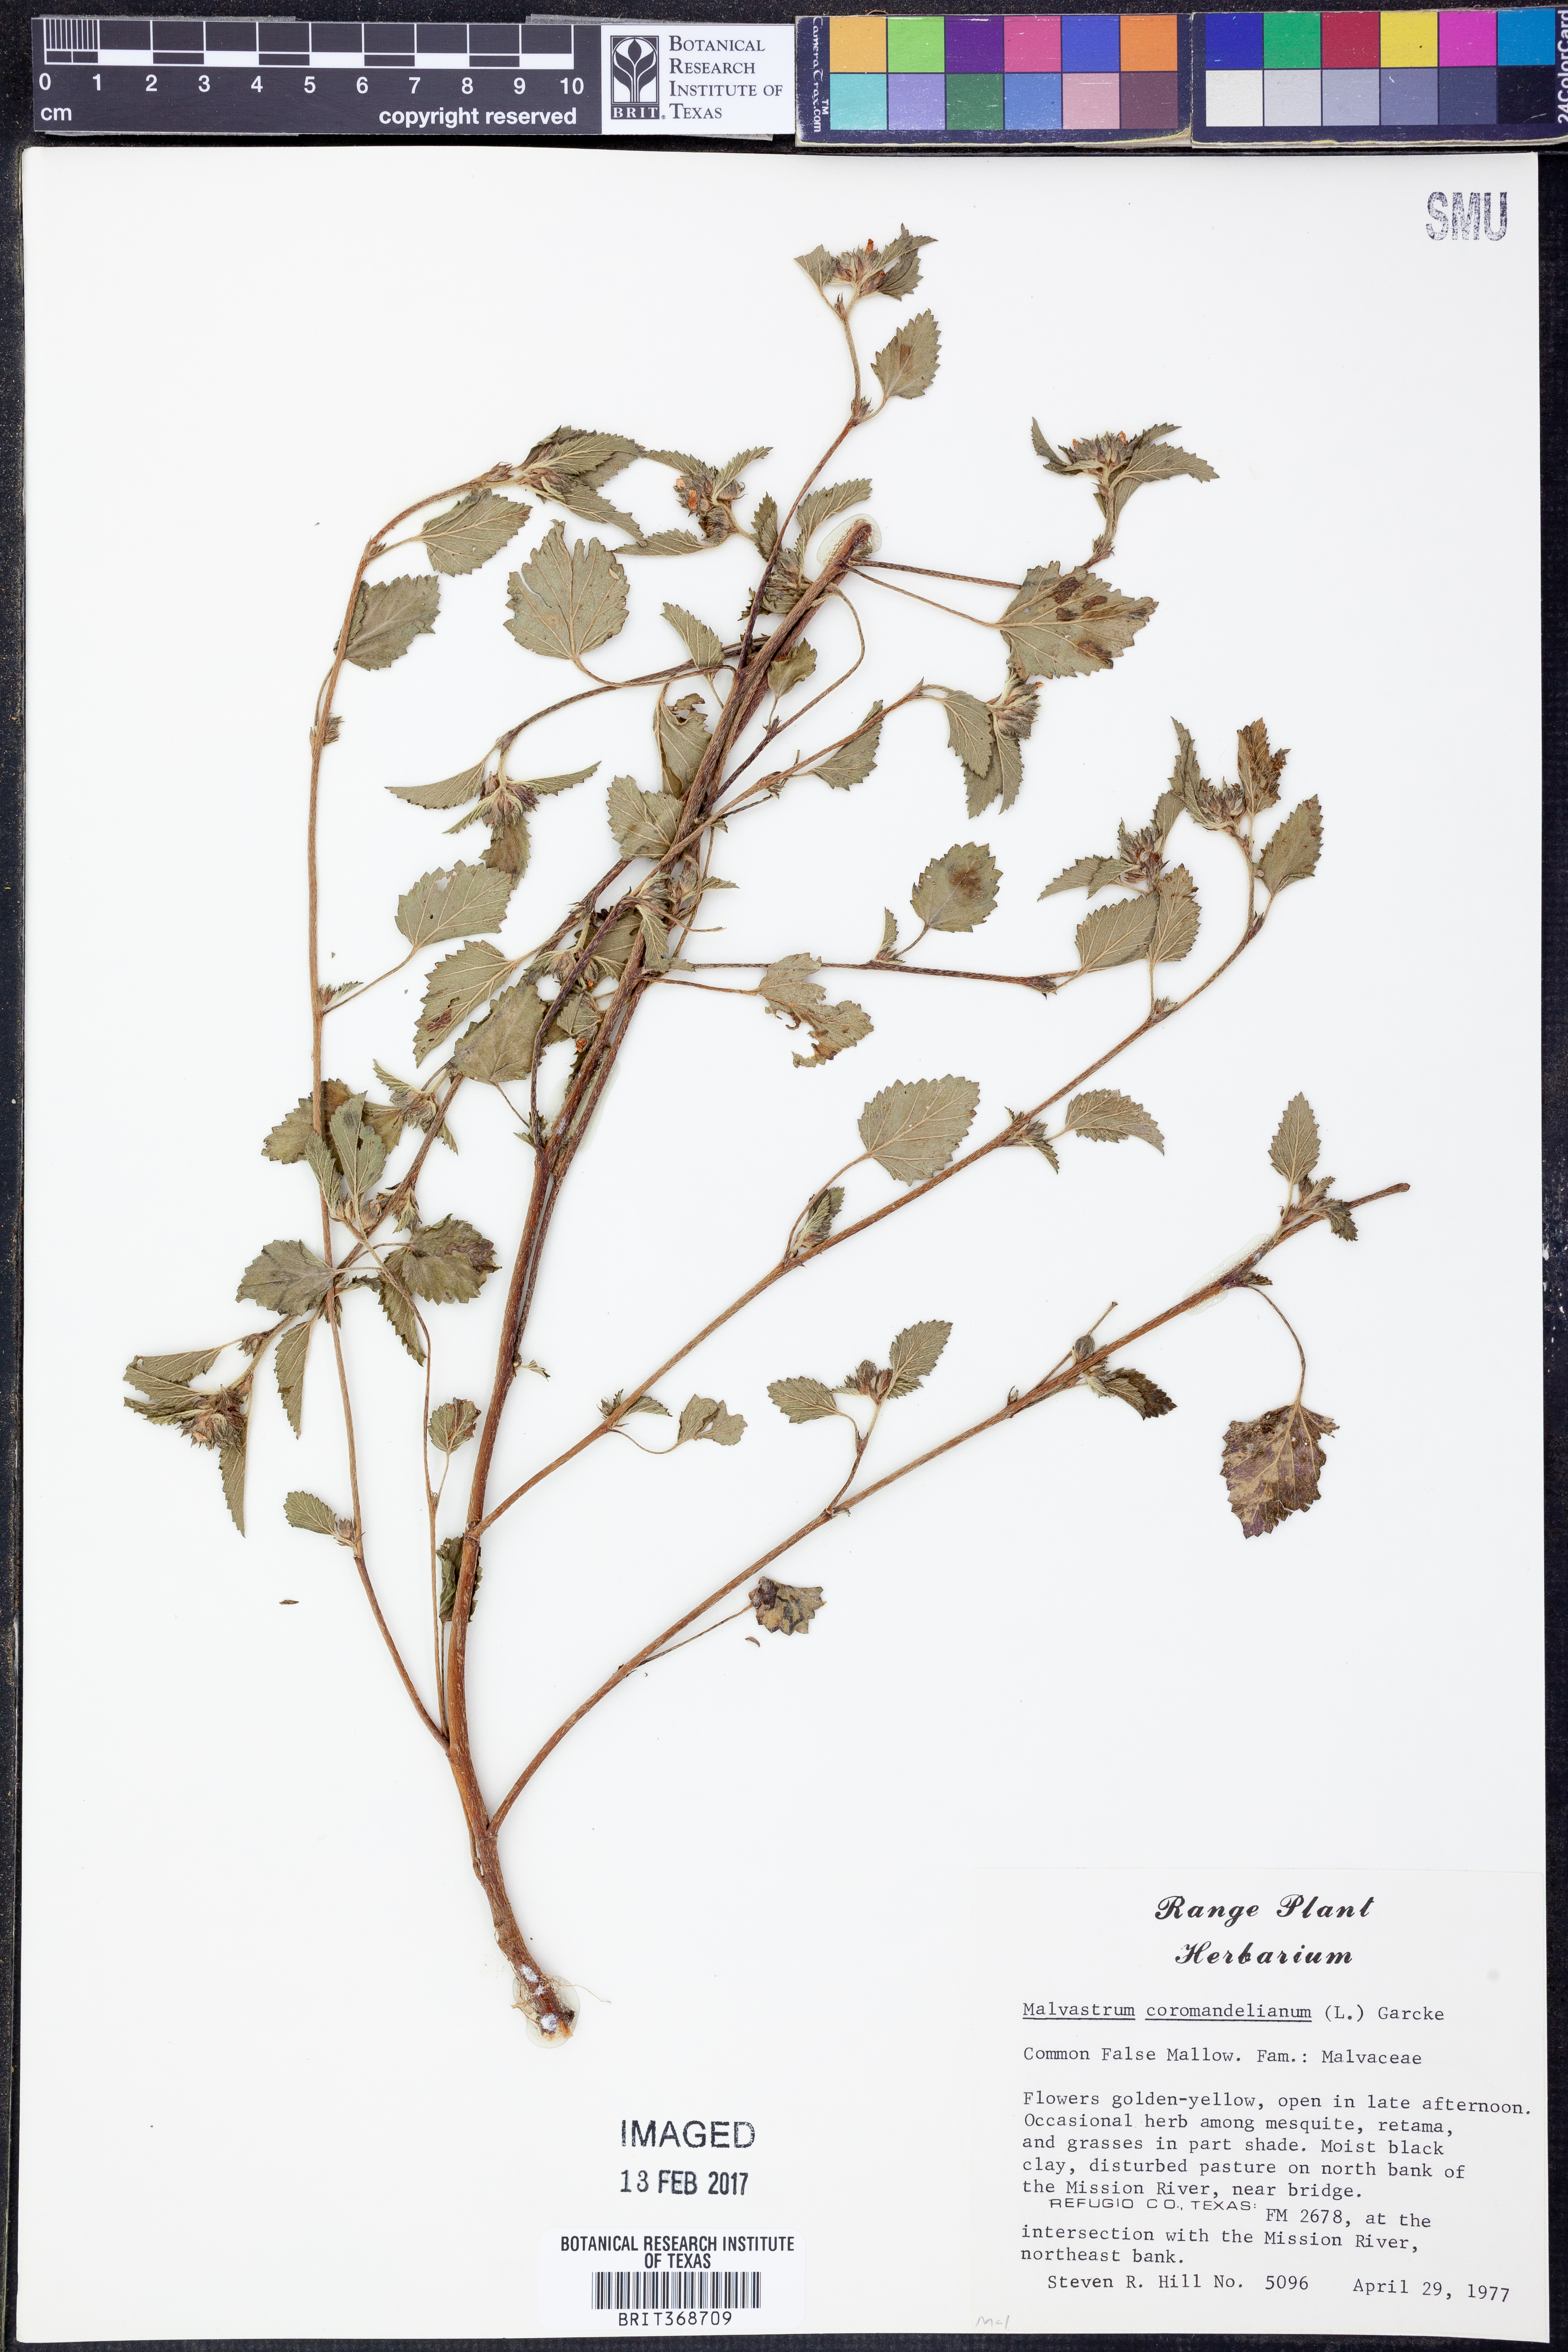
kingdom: Plantae
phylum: Tracheophyta
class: Magnoliopsida
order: Malvales
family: Malvaceae
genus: Malvastrum
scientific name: Malvastrum coromandelianum
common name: Threelobe false mallow
